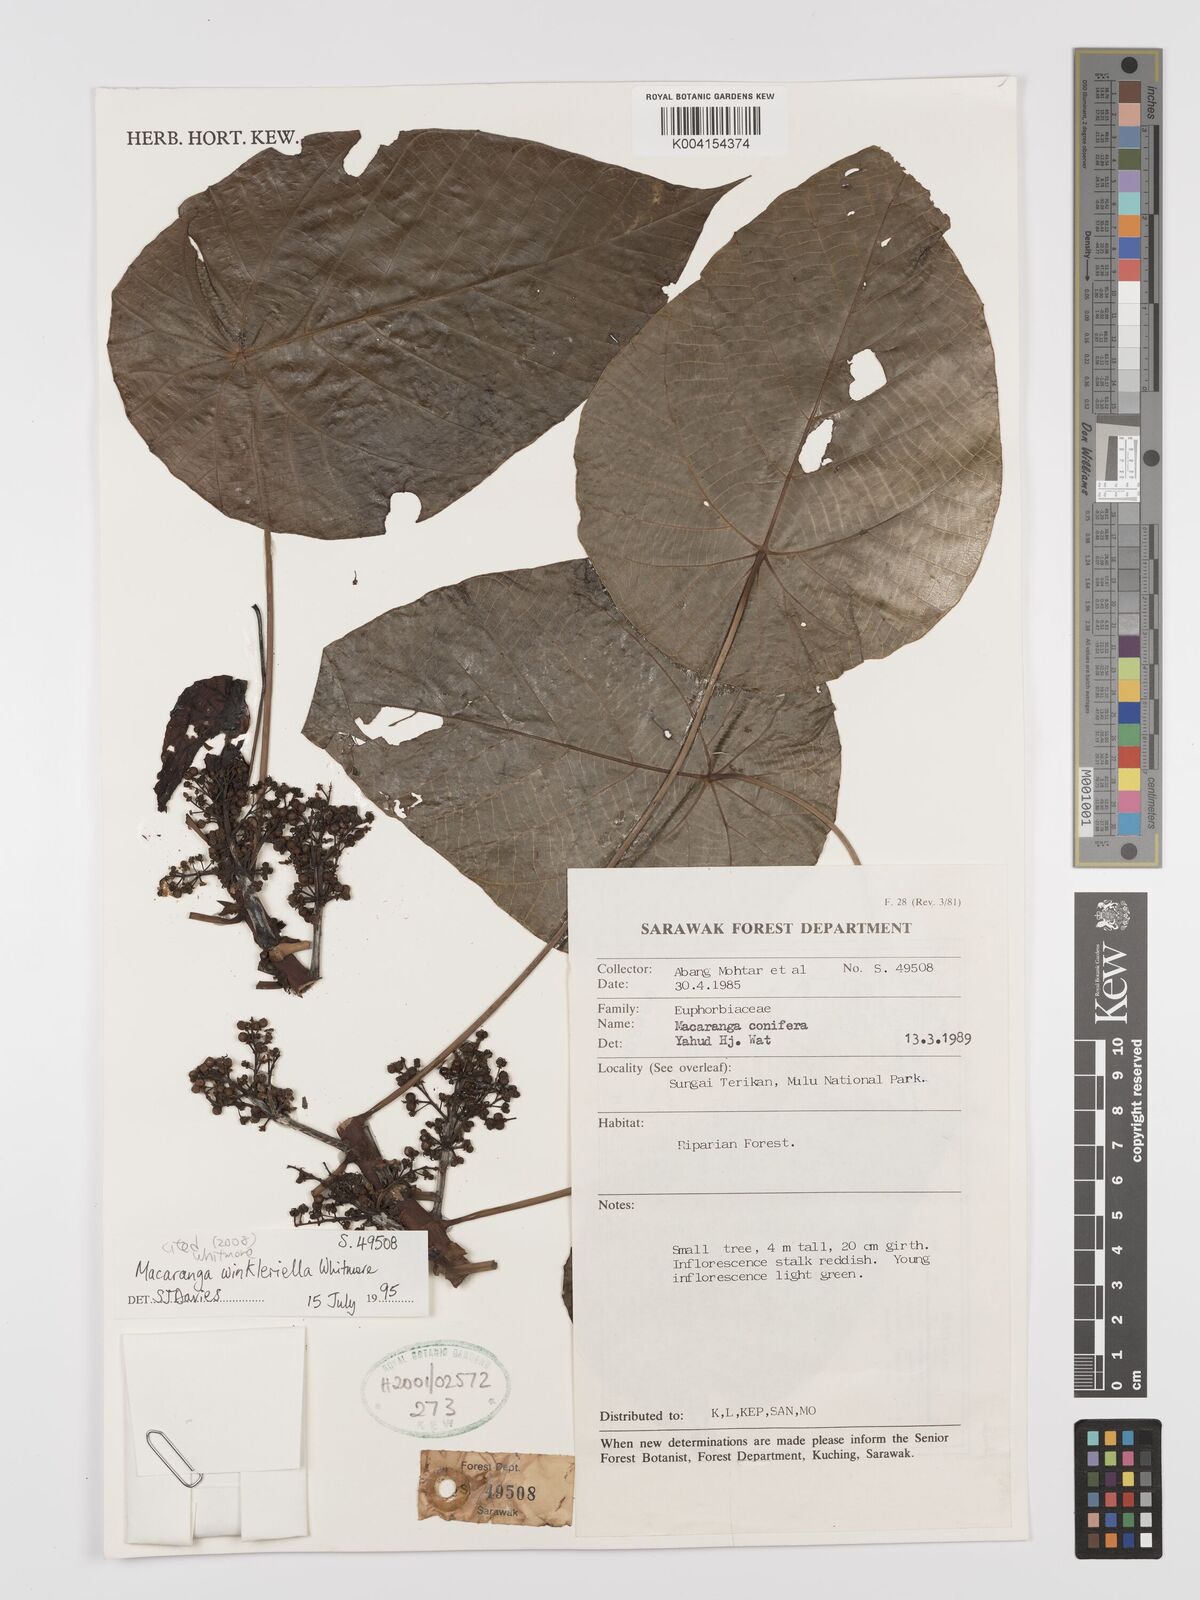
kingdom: Plantae
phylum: Tracheophyta
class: Magnoliopsida
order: Malpighiales
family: Euphorbiaceae
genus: Macaranga
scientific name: Macaranga winkleriella
